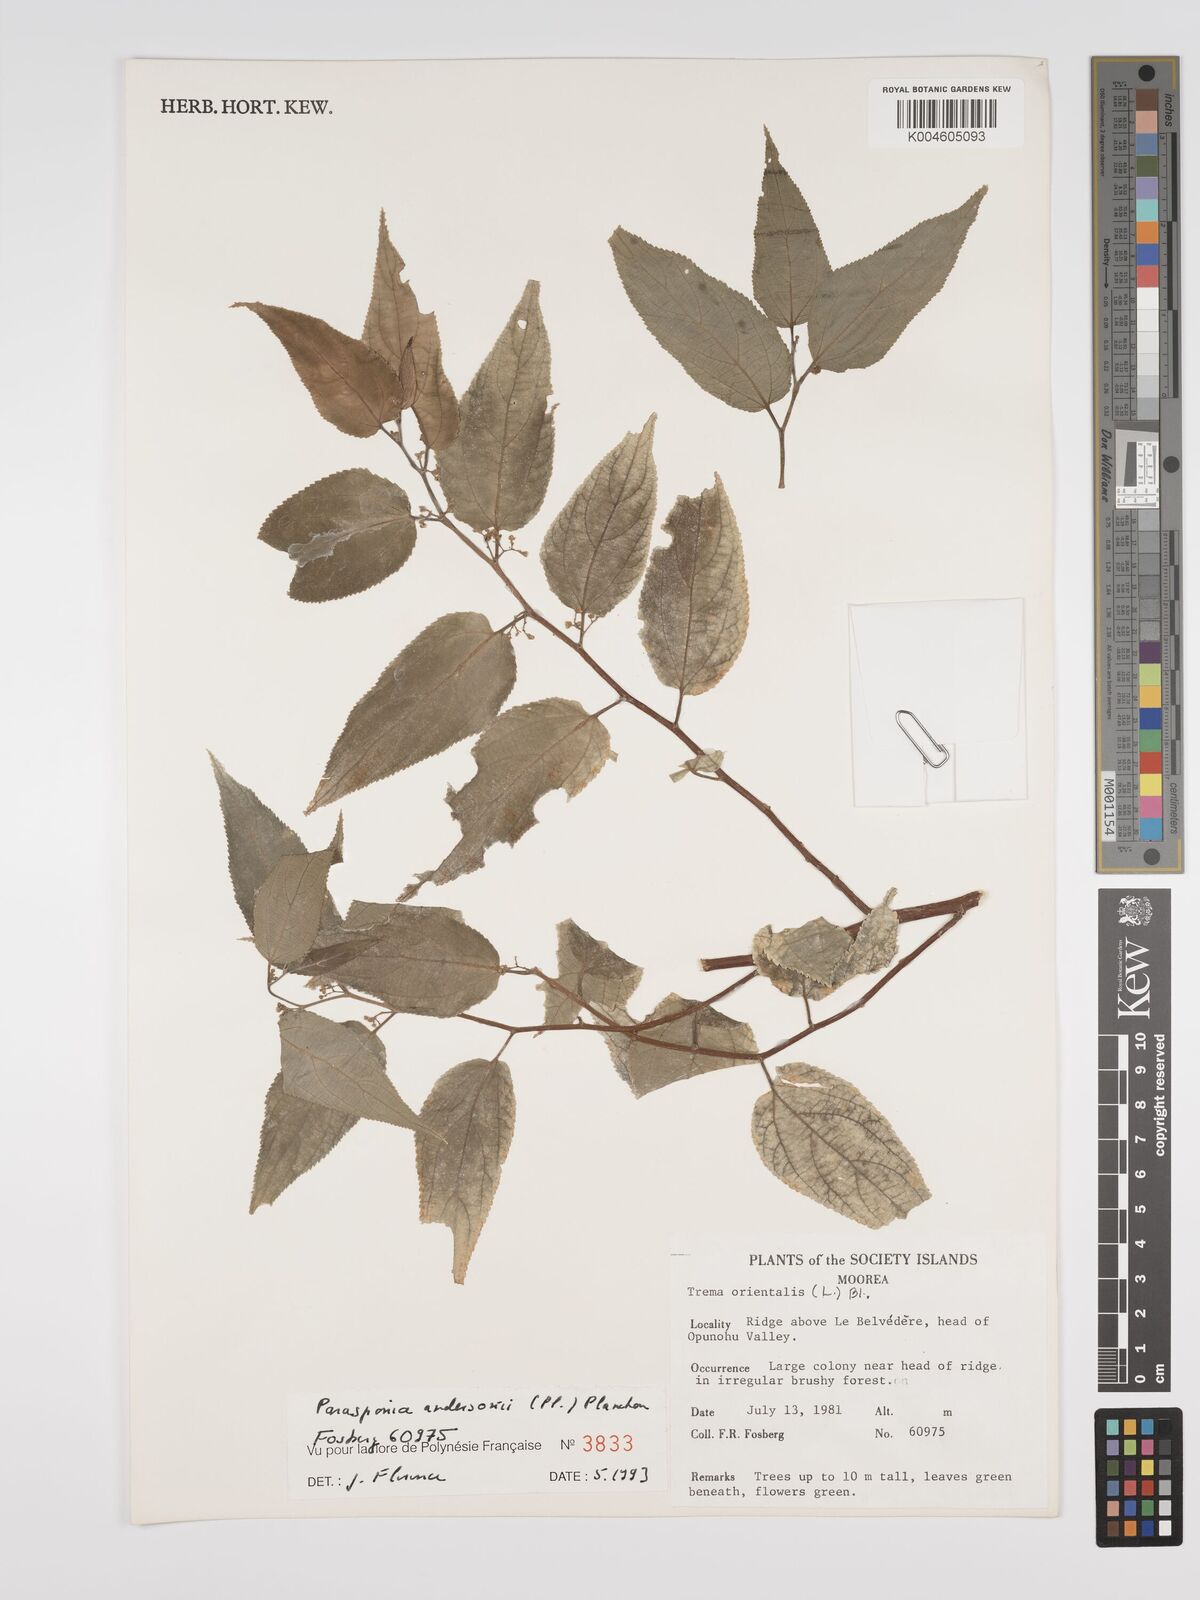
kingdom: Plantae
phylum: Tracheophyta
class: Magnoliopsida
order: Rosales
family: Cannabaceae
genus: Trema
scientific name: Trema andersonii
